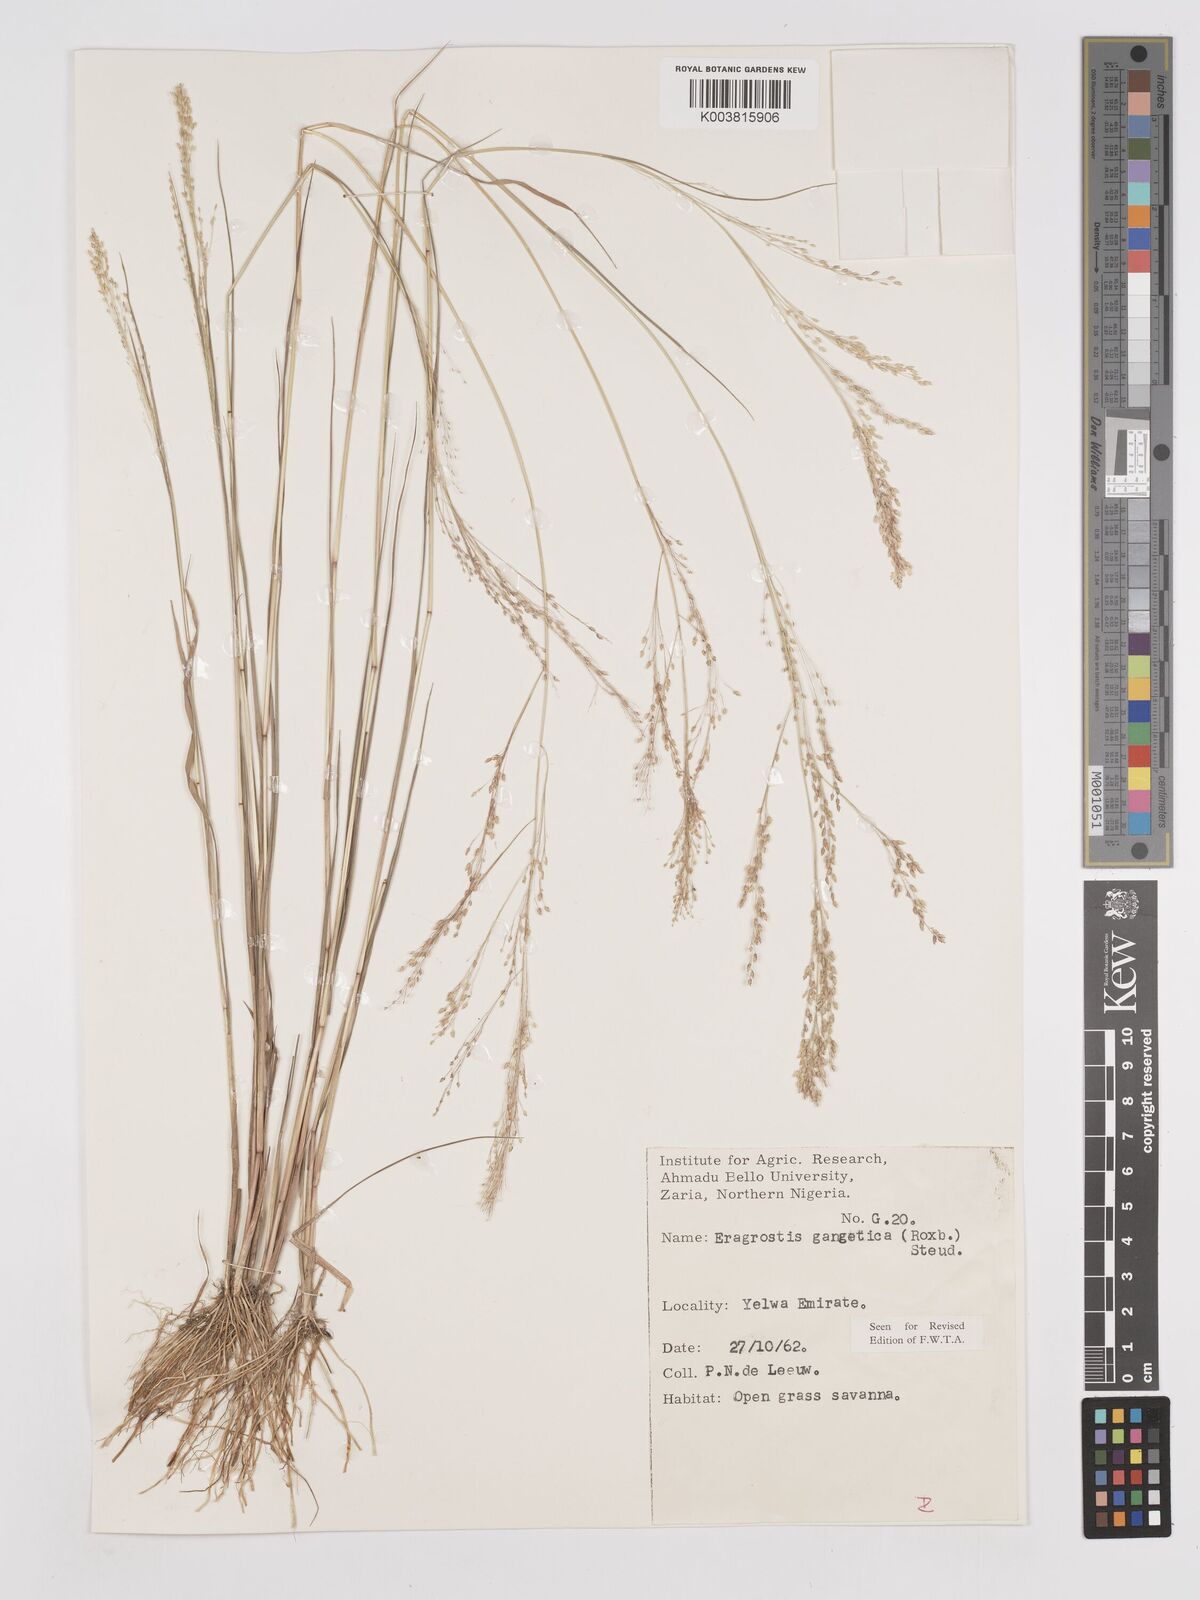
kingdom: Plantae
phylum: Tracheophyta
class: Liliopsida
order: Poales
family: Poaceae
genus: Eragrostis
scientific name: Eragrostis gangetica
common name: Slimflower lovegrass
